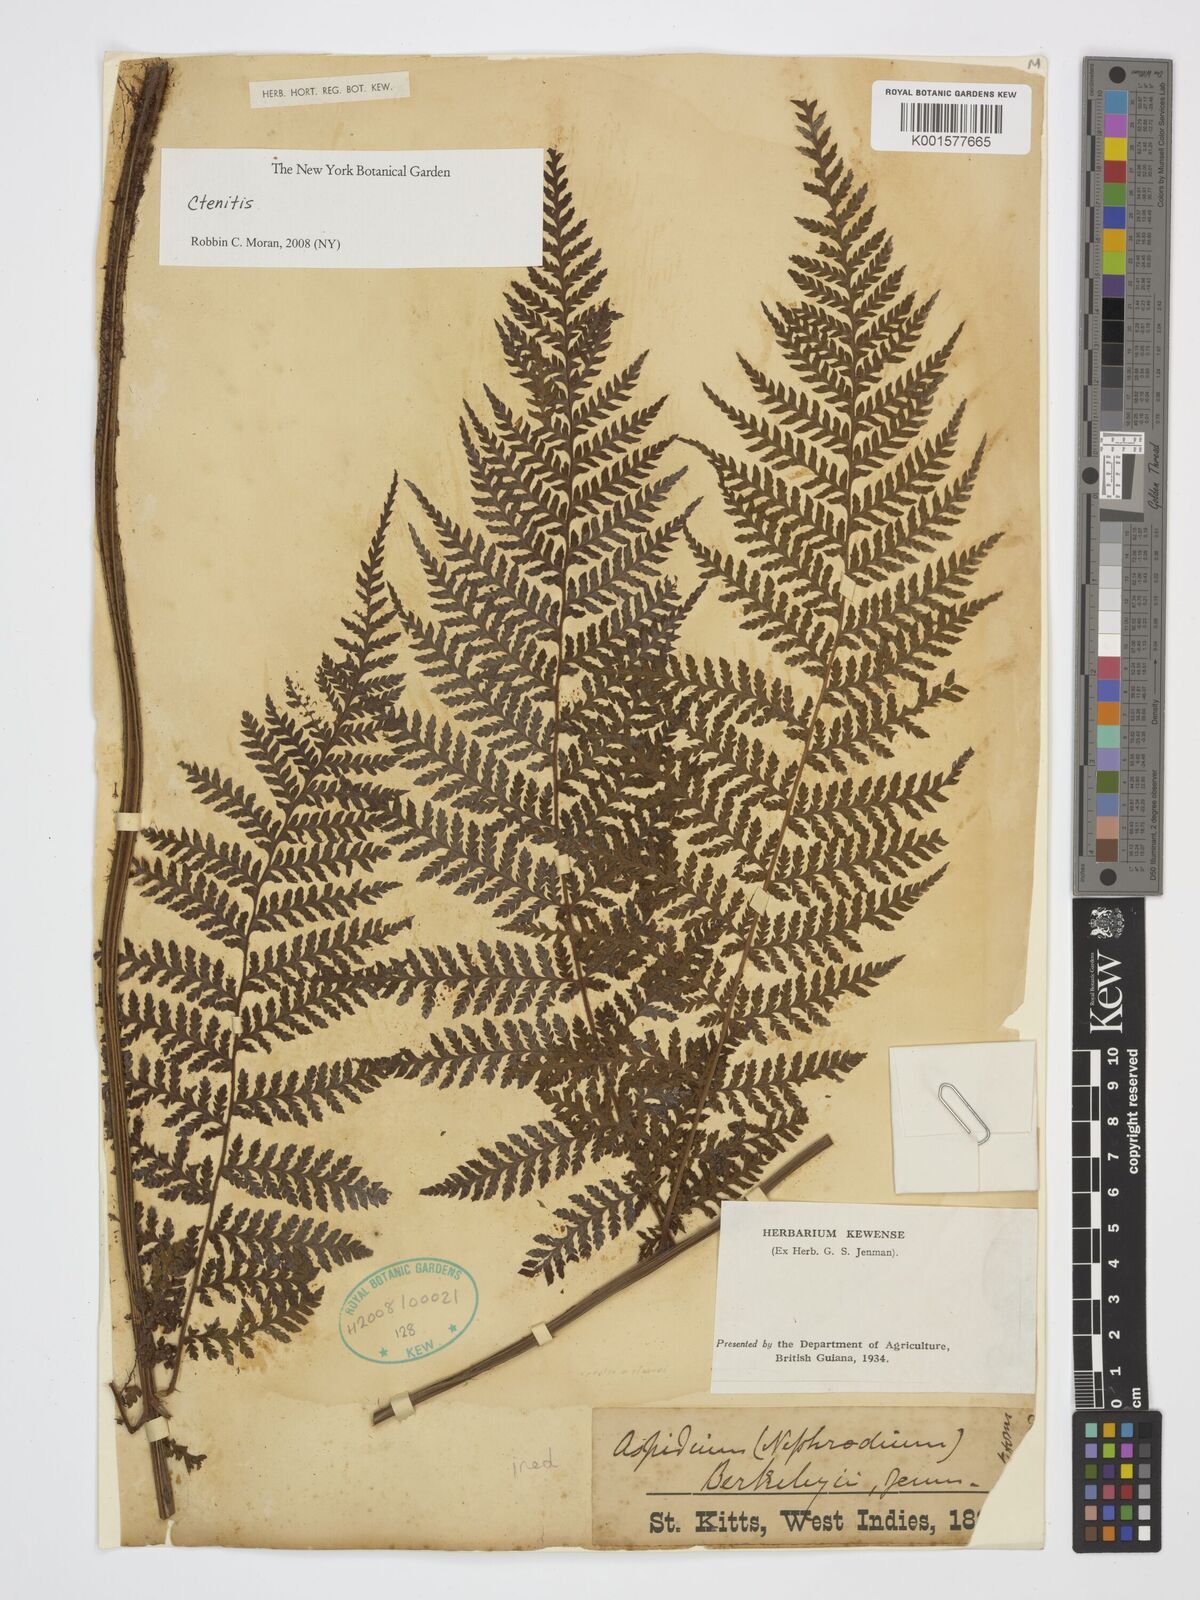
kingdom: Plantae
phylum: Tracheophyta
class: Polypodiopsida
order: Polypodiales
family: Dryopteridaceae
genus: Ctenitis
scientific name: Ctenitis
